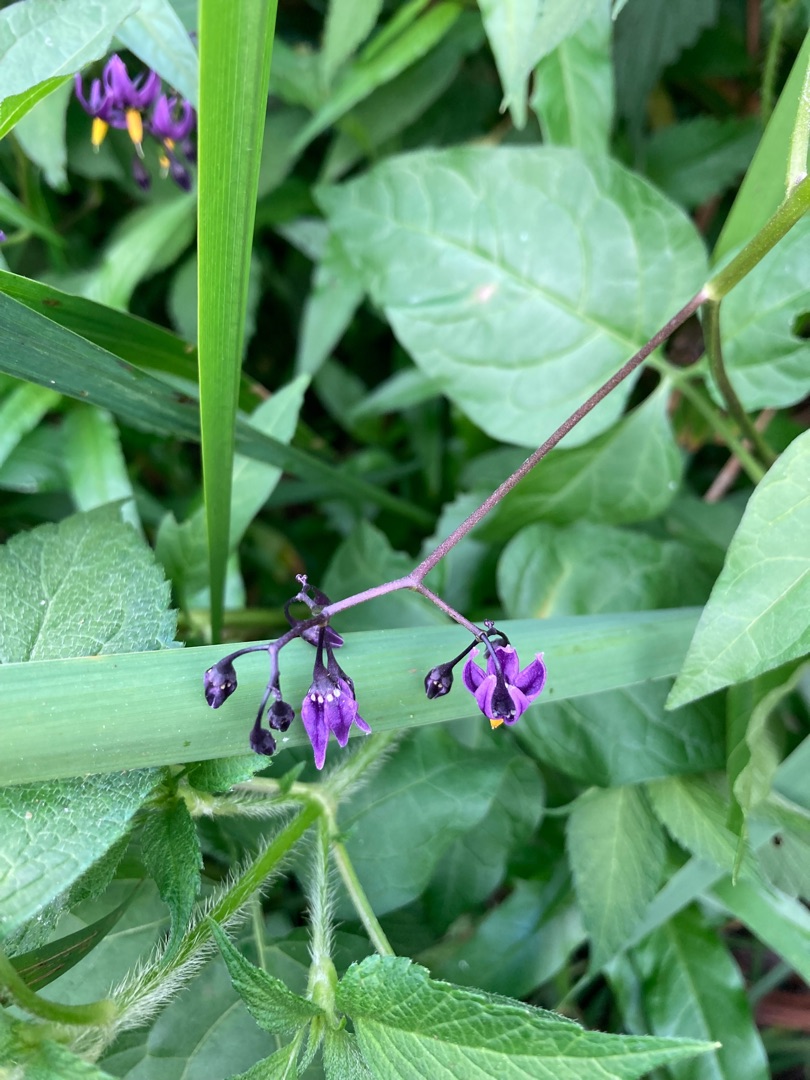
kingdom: Plantae
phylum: Tracheophyta
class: Magnoliopsida
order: Solanales
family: Solanaceae
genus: Solanum
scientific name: Solanum dulcamara
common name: Bittersød natskygge
